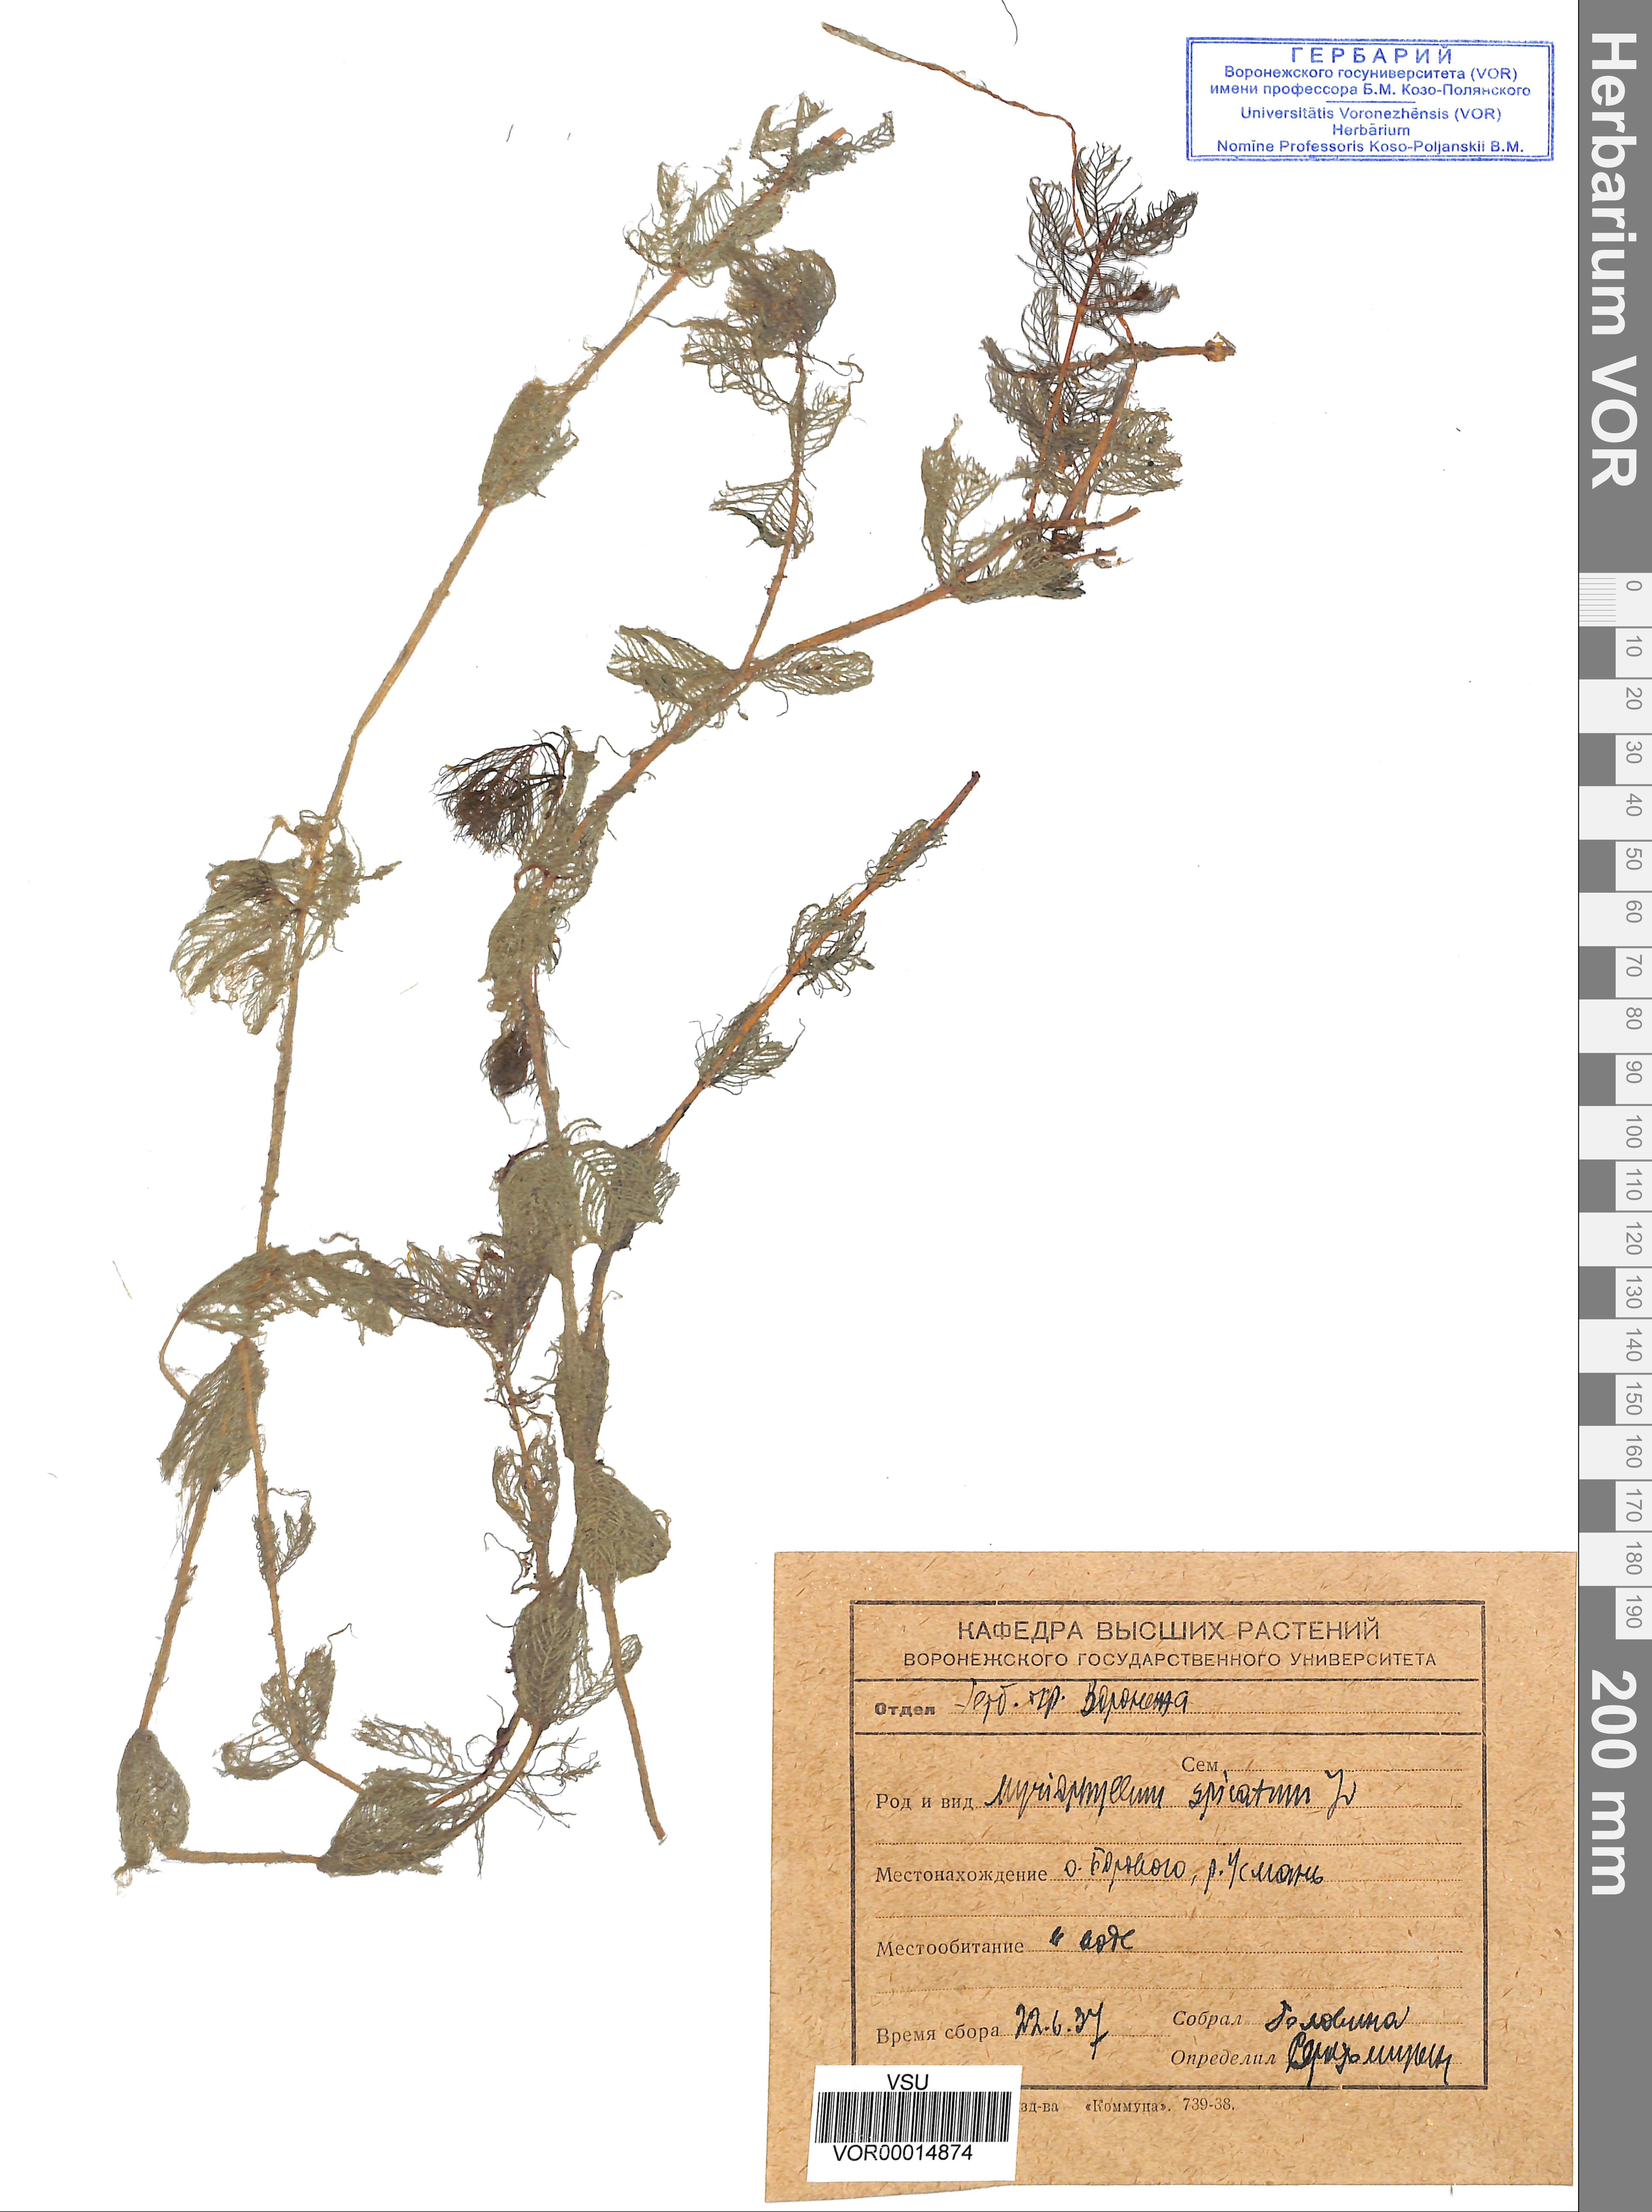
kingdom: Plantae
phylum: Tracheophyta
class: Magnoliopsida
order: Saxifragales
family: Haloragaceae
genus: Myriophyllum
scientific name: Myriophyllum spicatum
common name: Spiked water-milfoil
